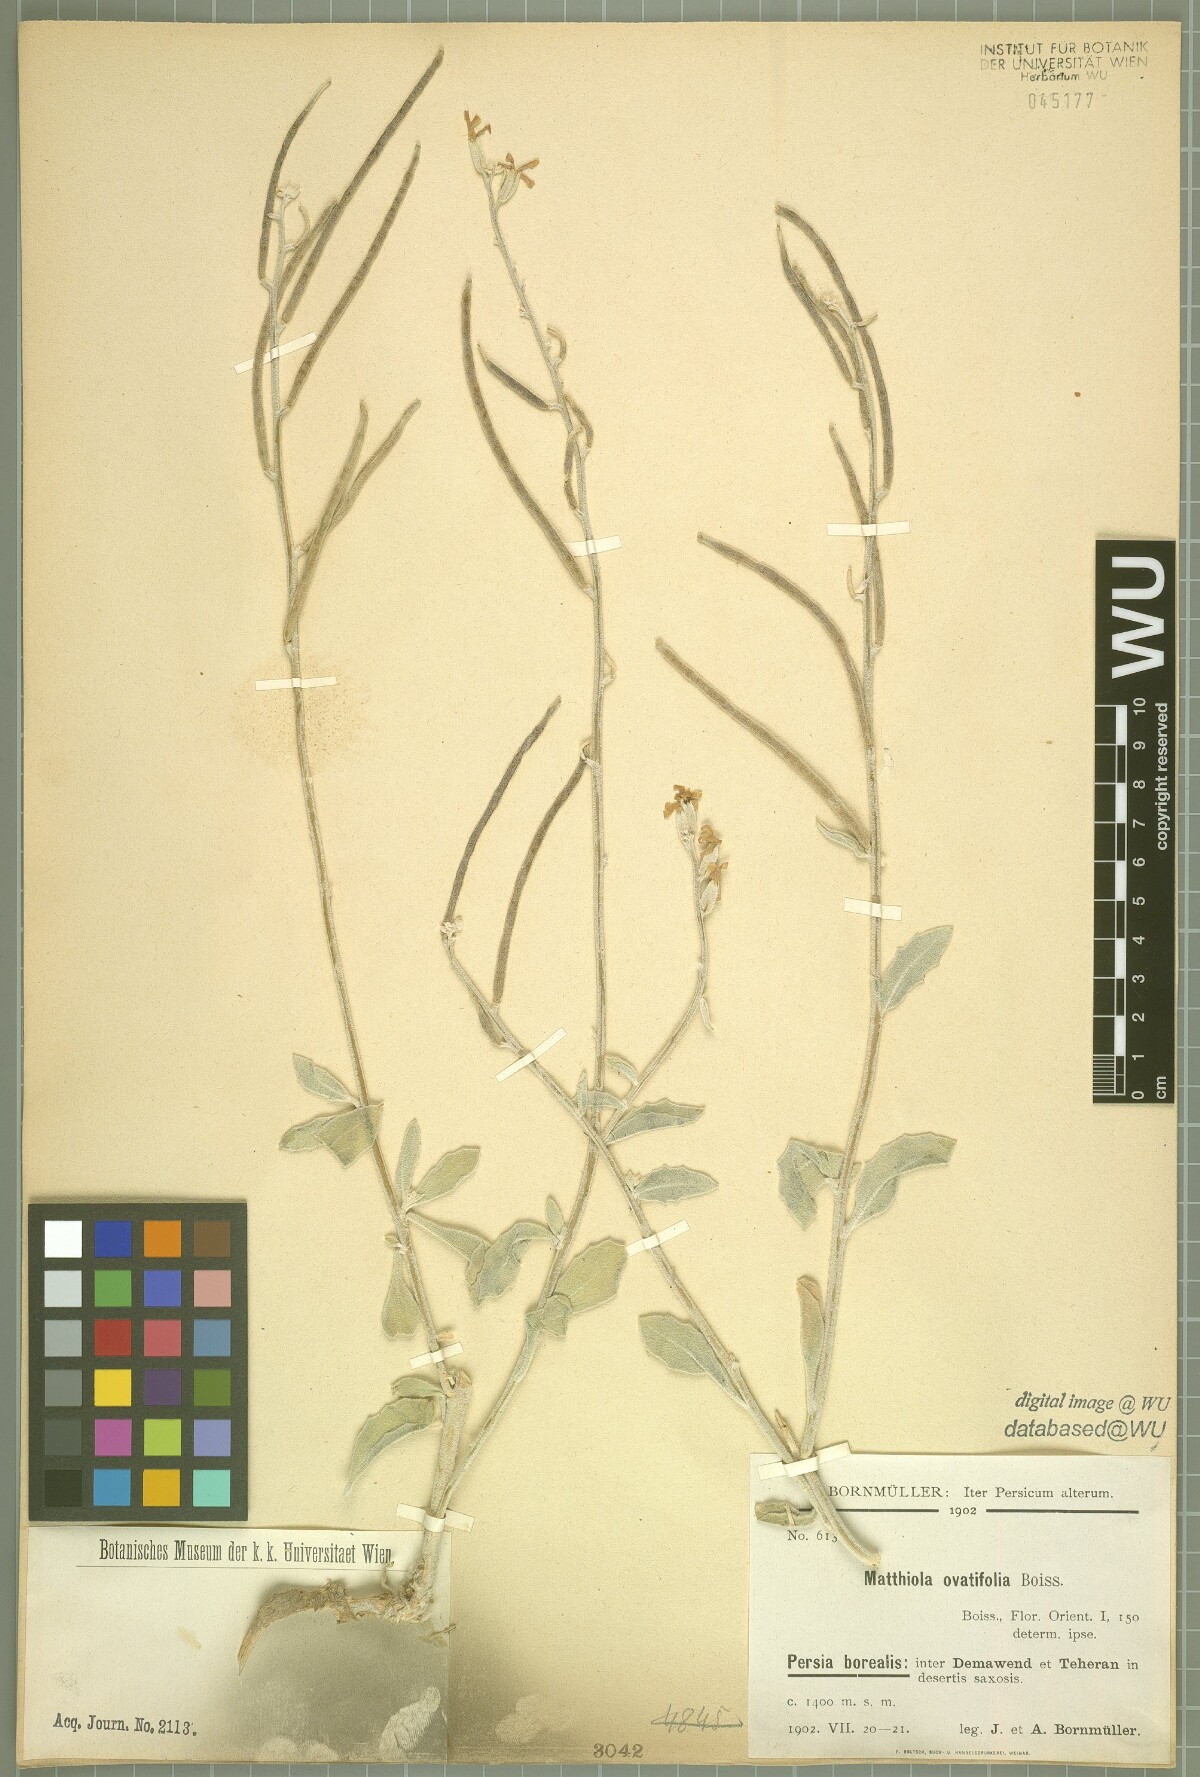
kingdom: Plantae
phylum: Tracheophyta
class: Magnoliopsida
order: Brassicales
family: Brassicaceae
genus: Matthiola
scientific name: Matthiola ovatifolia
